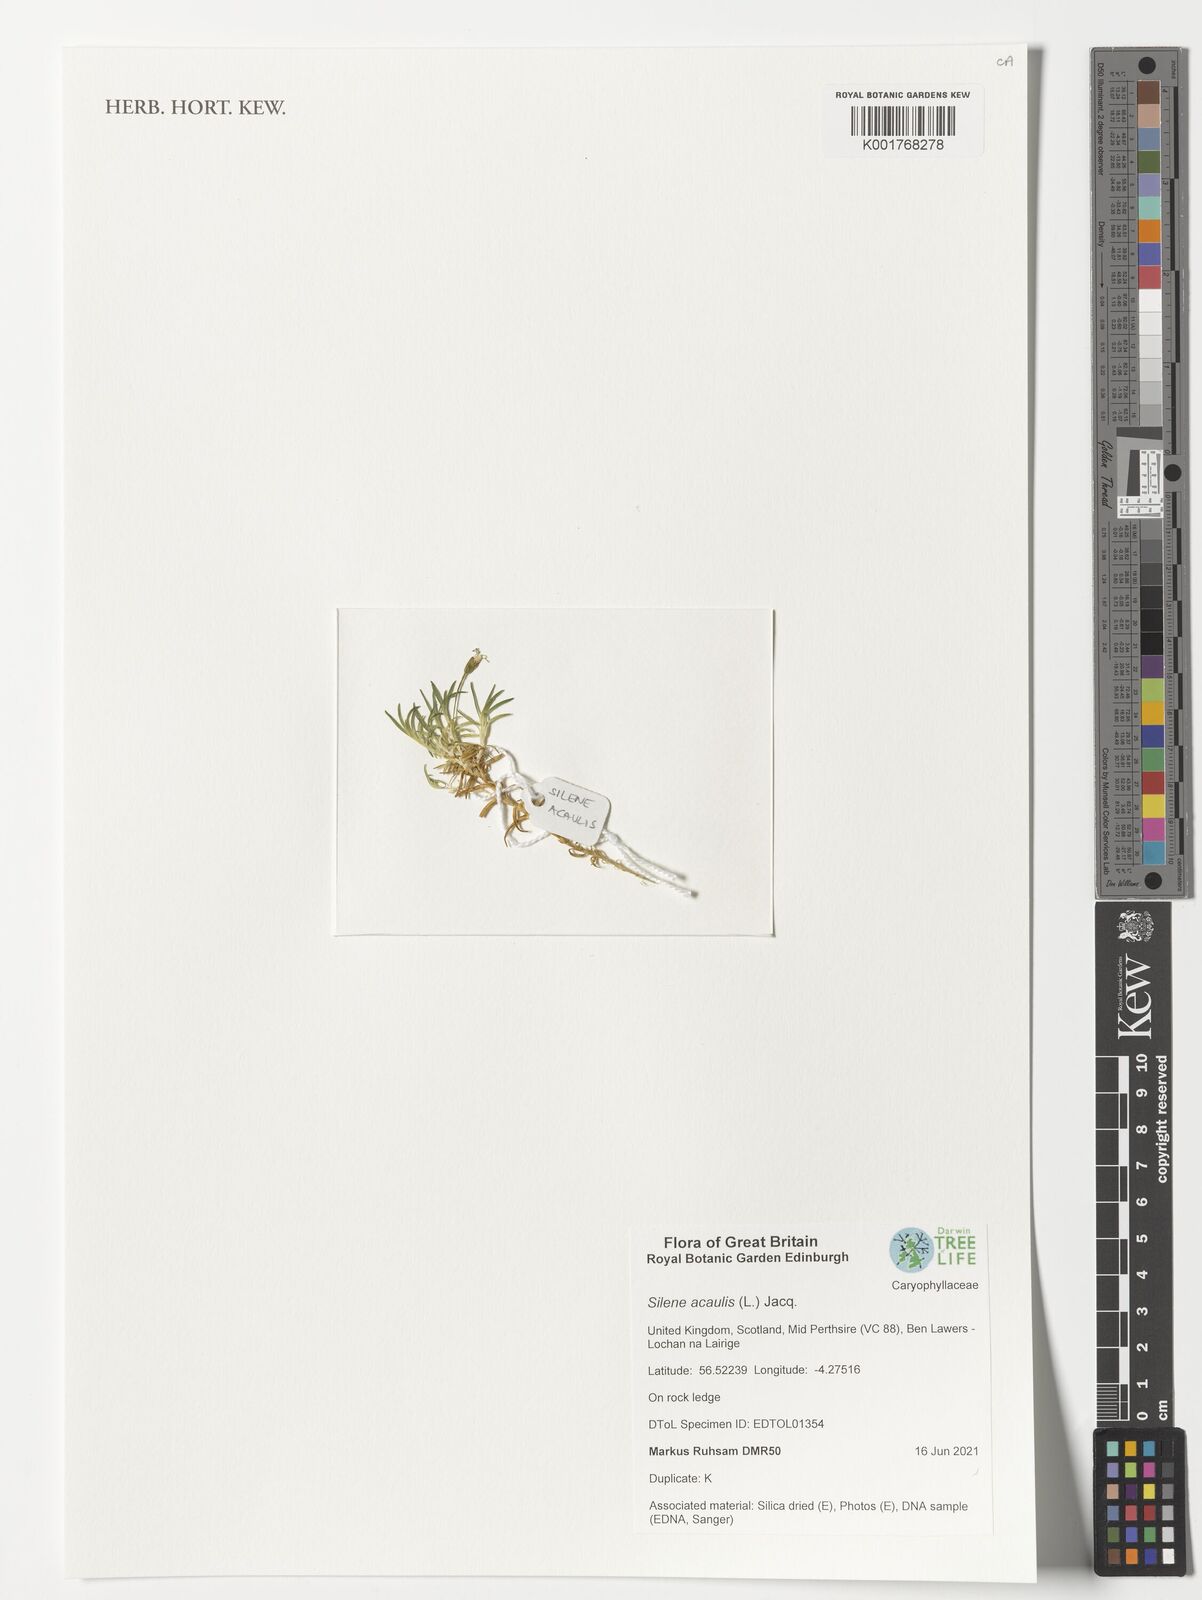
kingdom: Plantae
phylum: Tracheophyta
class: Magnoliopsida
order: Caryophyllales
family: Caryophyllaceae
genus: Silene
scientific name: Silene acaulis
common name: Moss campion
